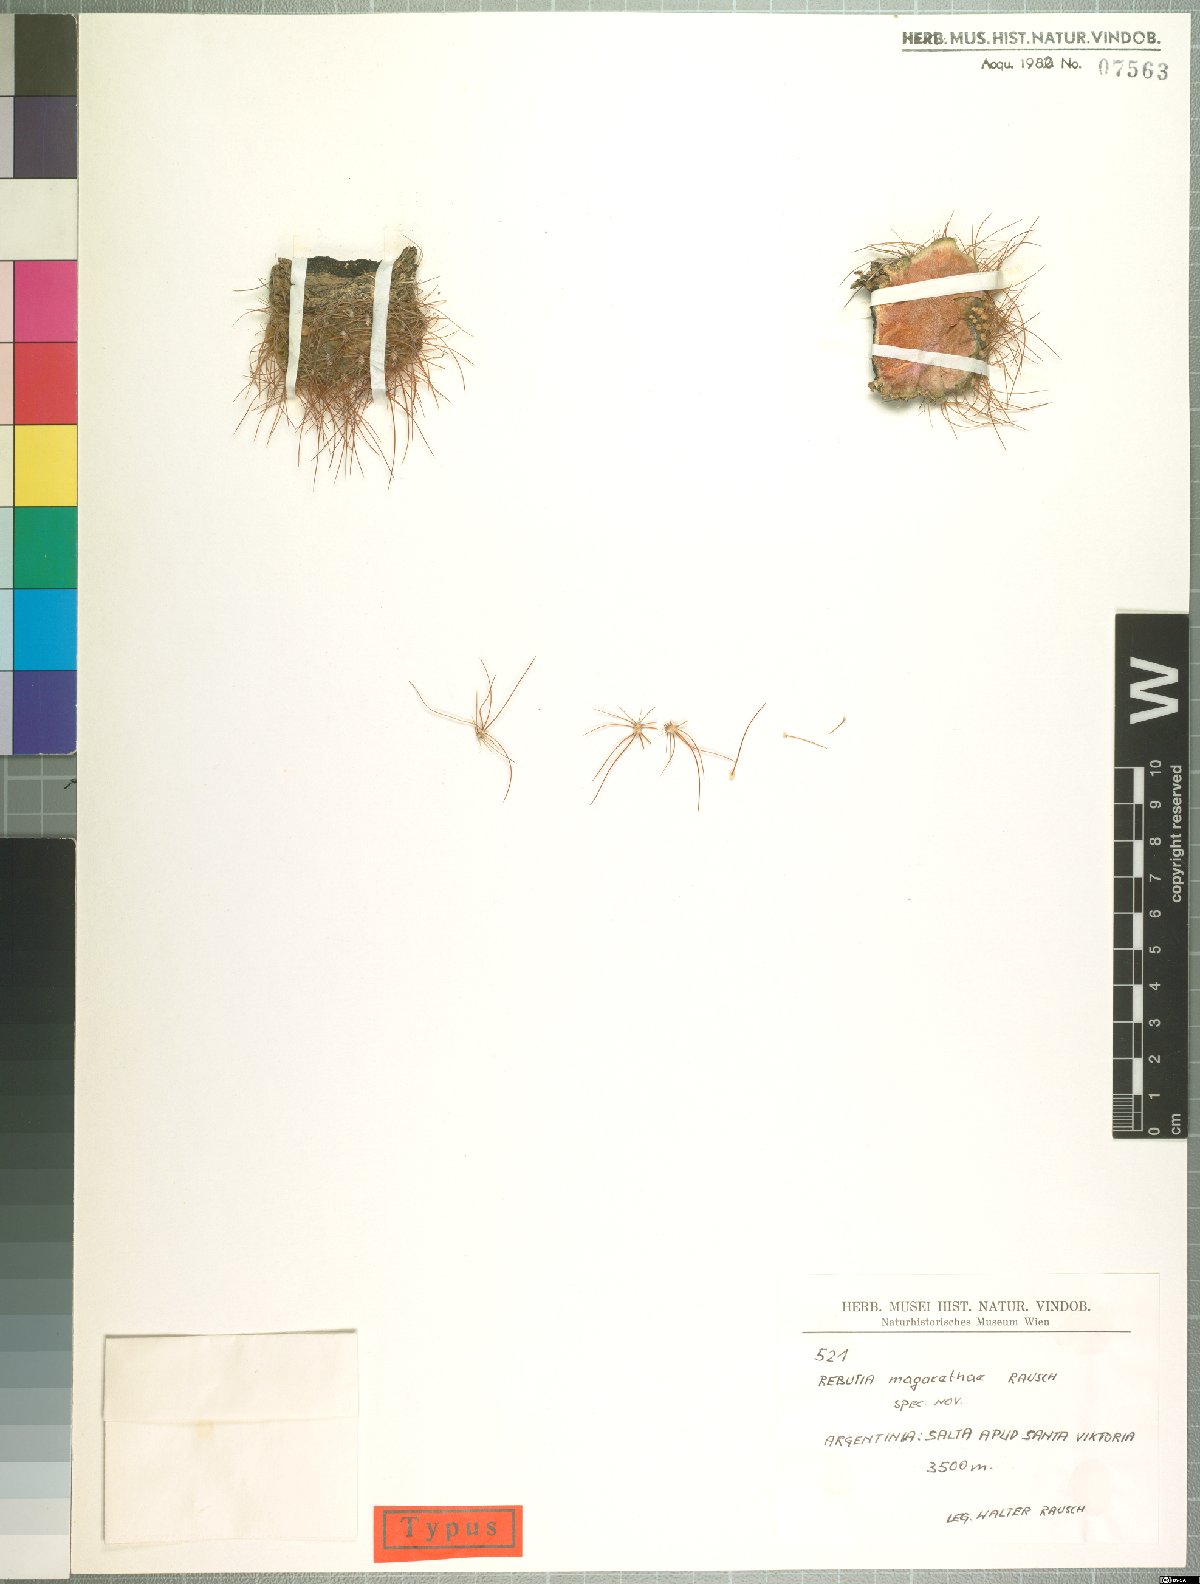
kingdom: Plantae
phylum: Tracheophyta
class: Magnoliopsida
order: Caryophyllales
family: Cactaceae
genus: Weingartia
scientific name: Weingartia margarethae
